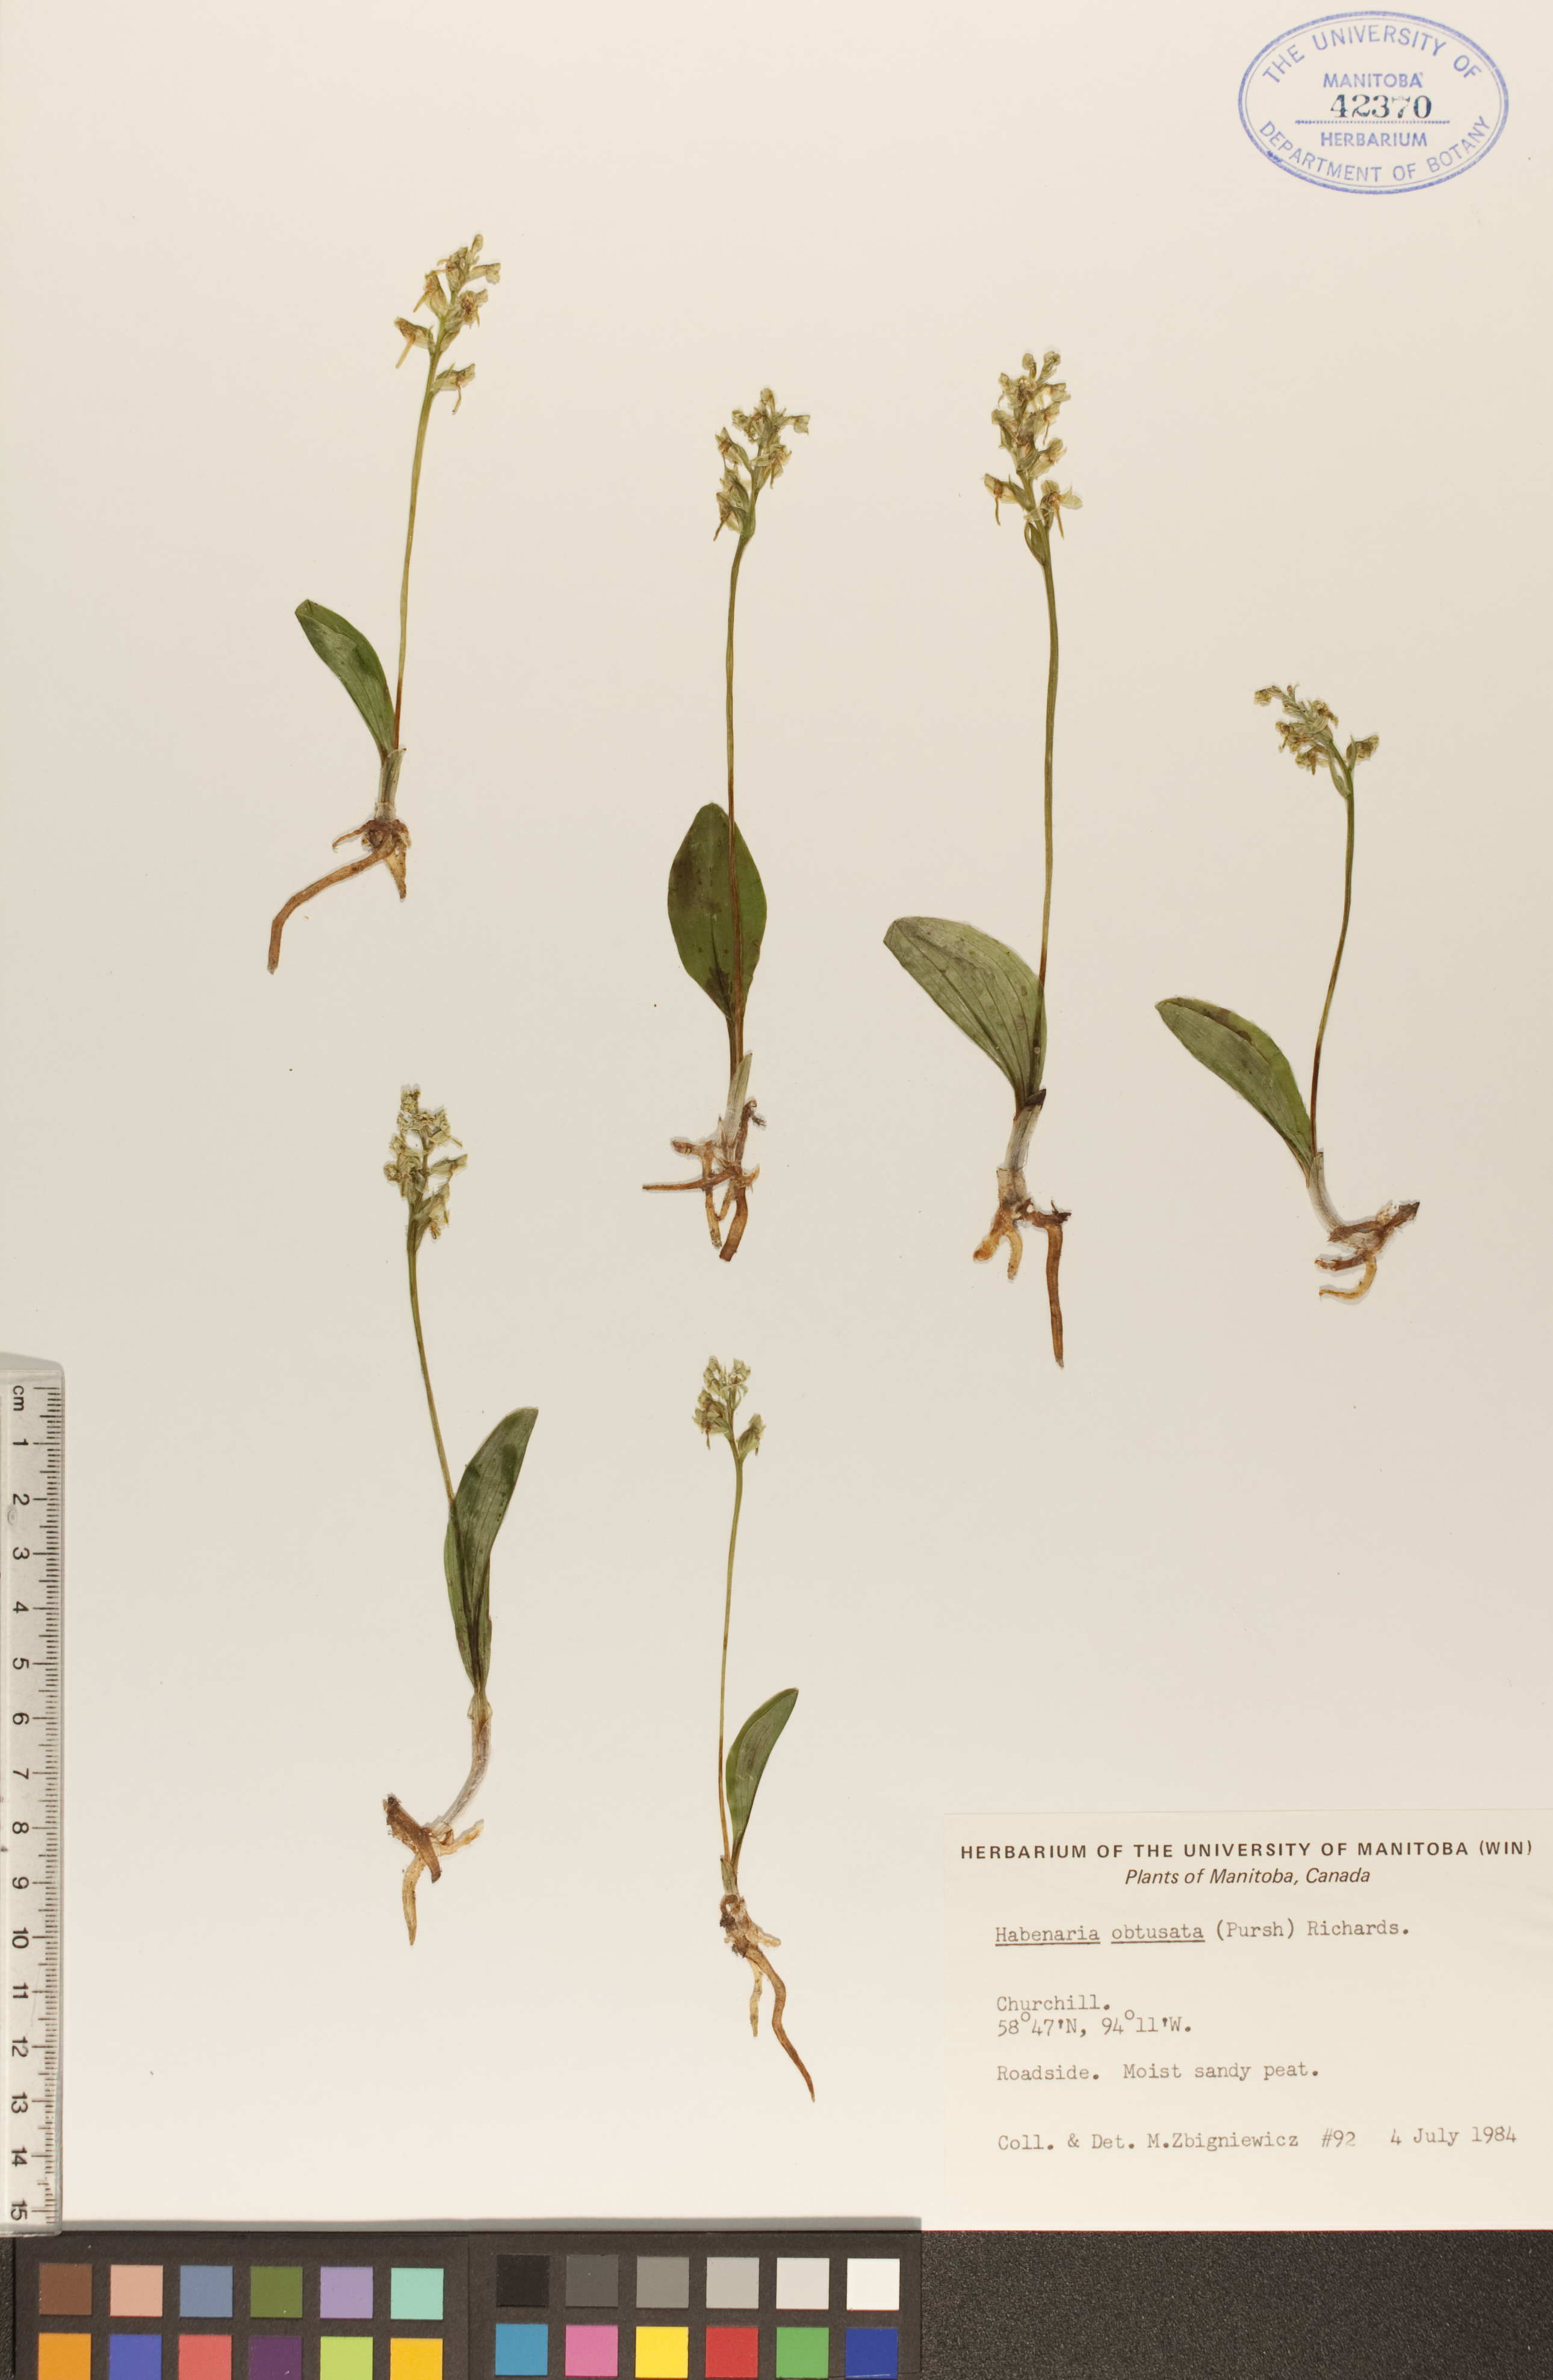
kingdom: Plantae
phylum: Tracheophyta
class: Liliopsida
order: Asparagales
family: Orchidaceae
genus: Platanthera
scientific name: Platanthera obtusata
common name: Blunt bog orchid
